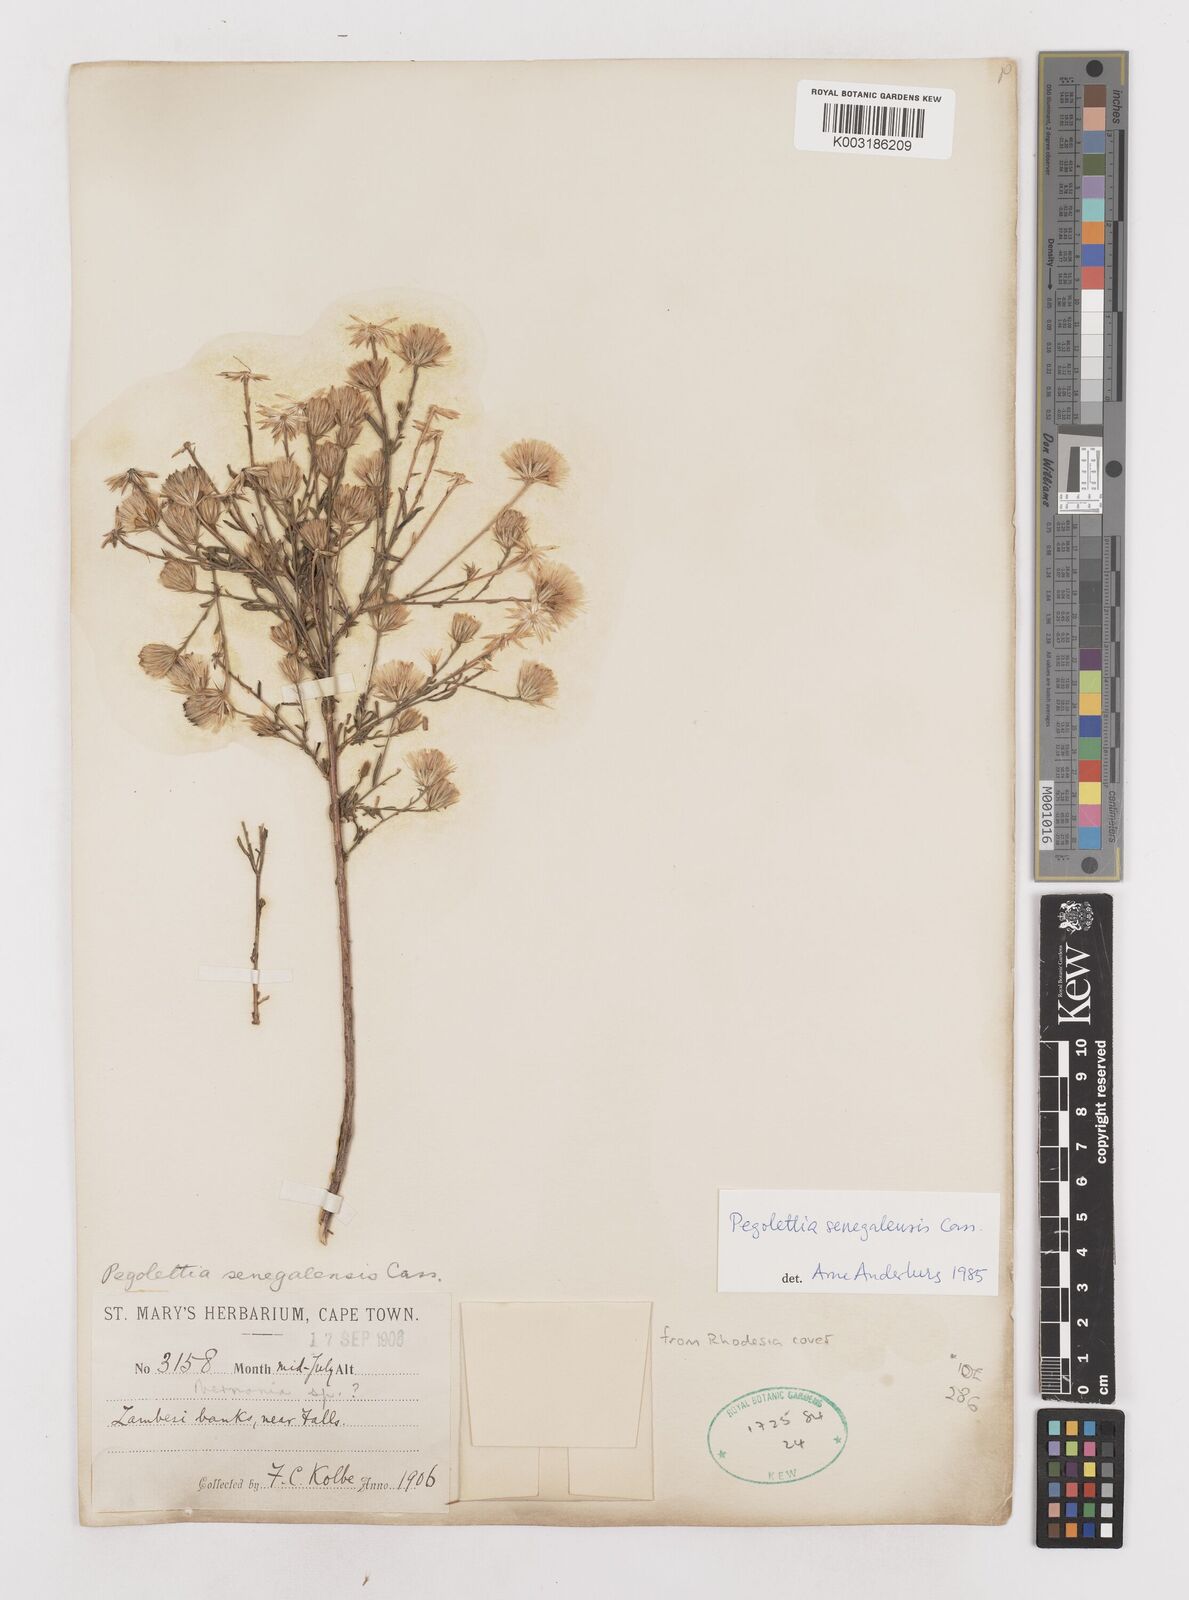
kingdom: Plantae
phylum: Tracheophyta
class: Magnoliopsida
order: Asterales
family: Asteraceae
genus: Pegolettia
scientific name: Pegolettia senegalensis
